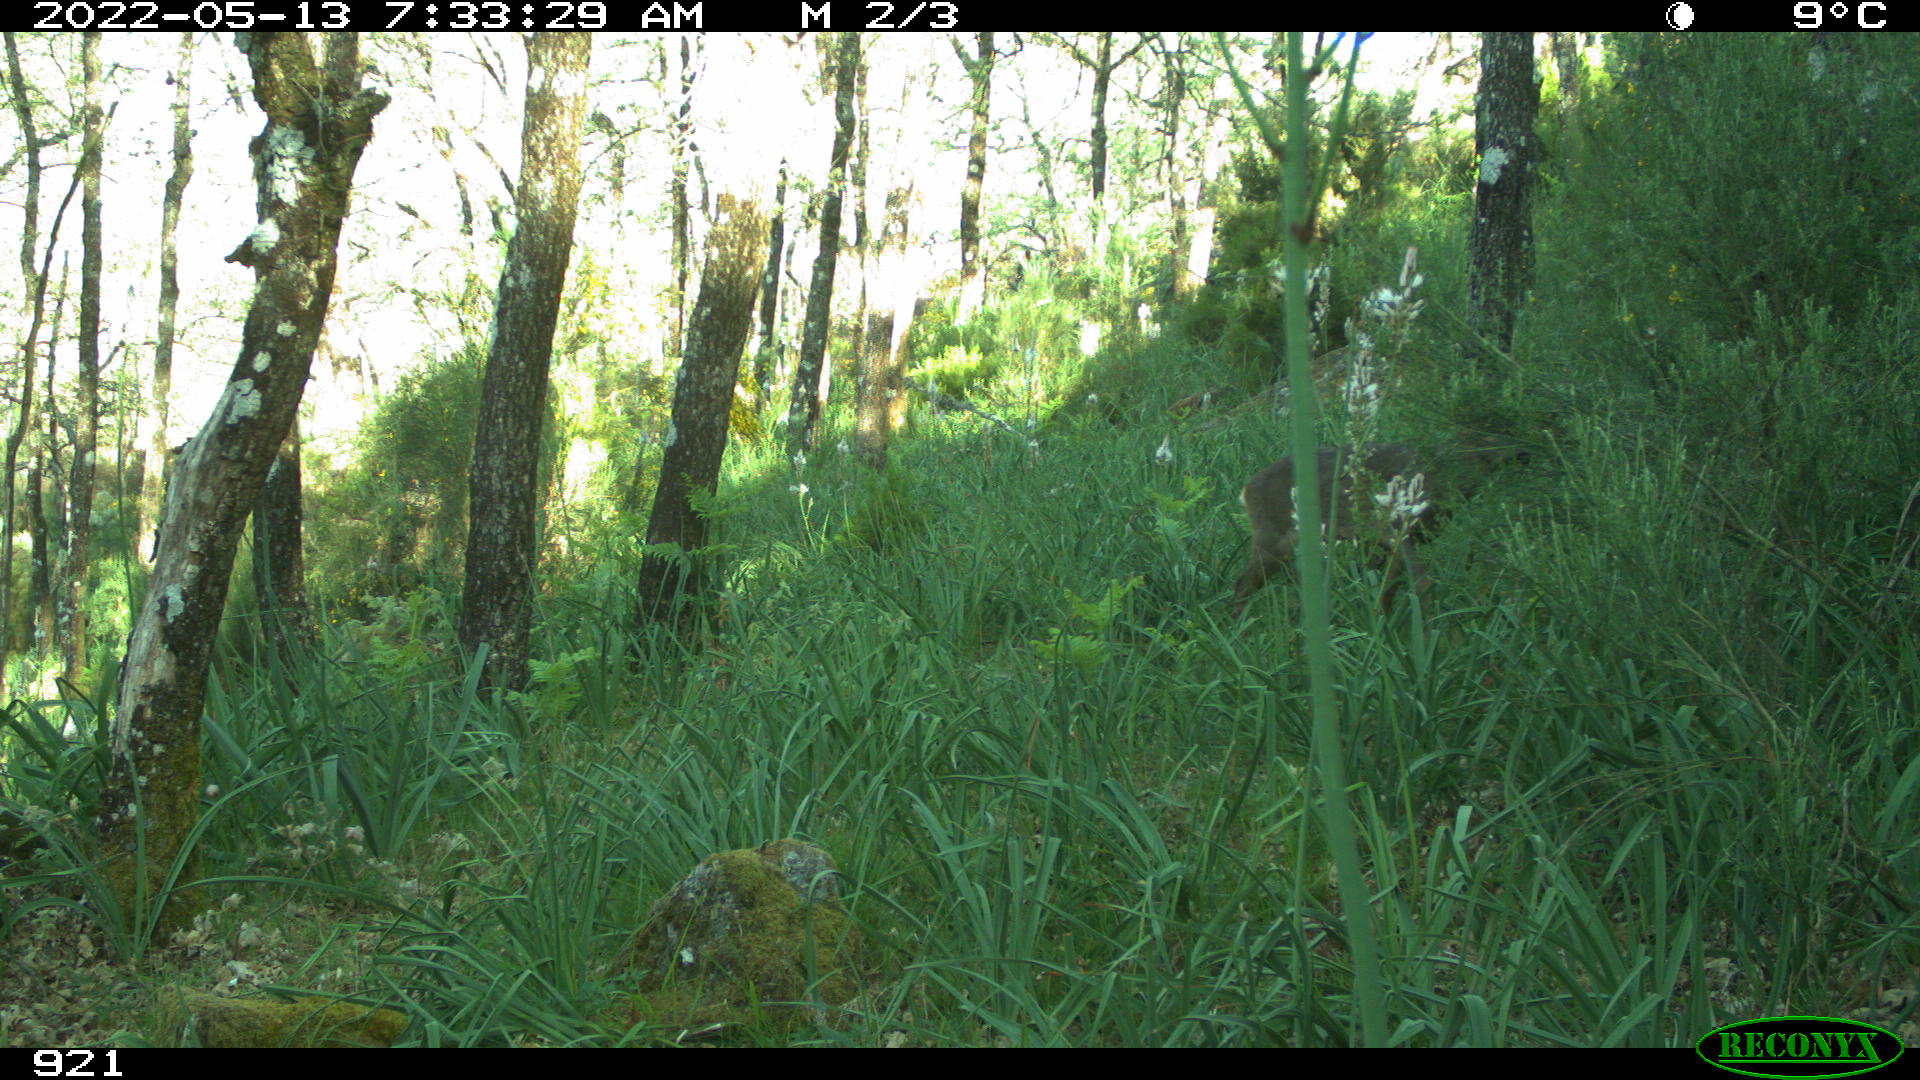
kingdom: Animalia
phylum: Chordata
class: Mammalia
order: Artiodactyla
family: Cervidae
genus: Capreolus
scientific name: Capreolus capreolus
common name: Western roe deer
